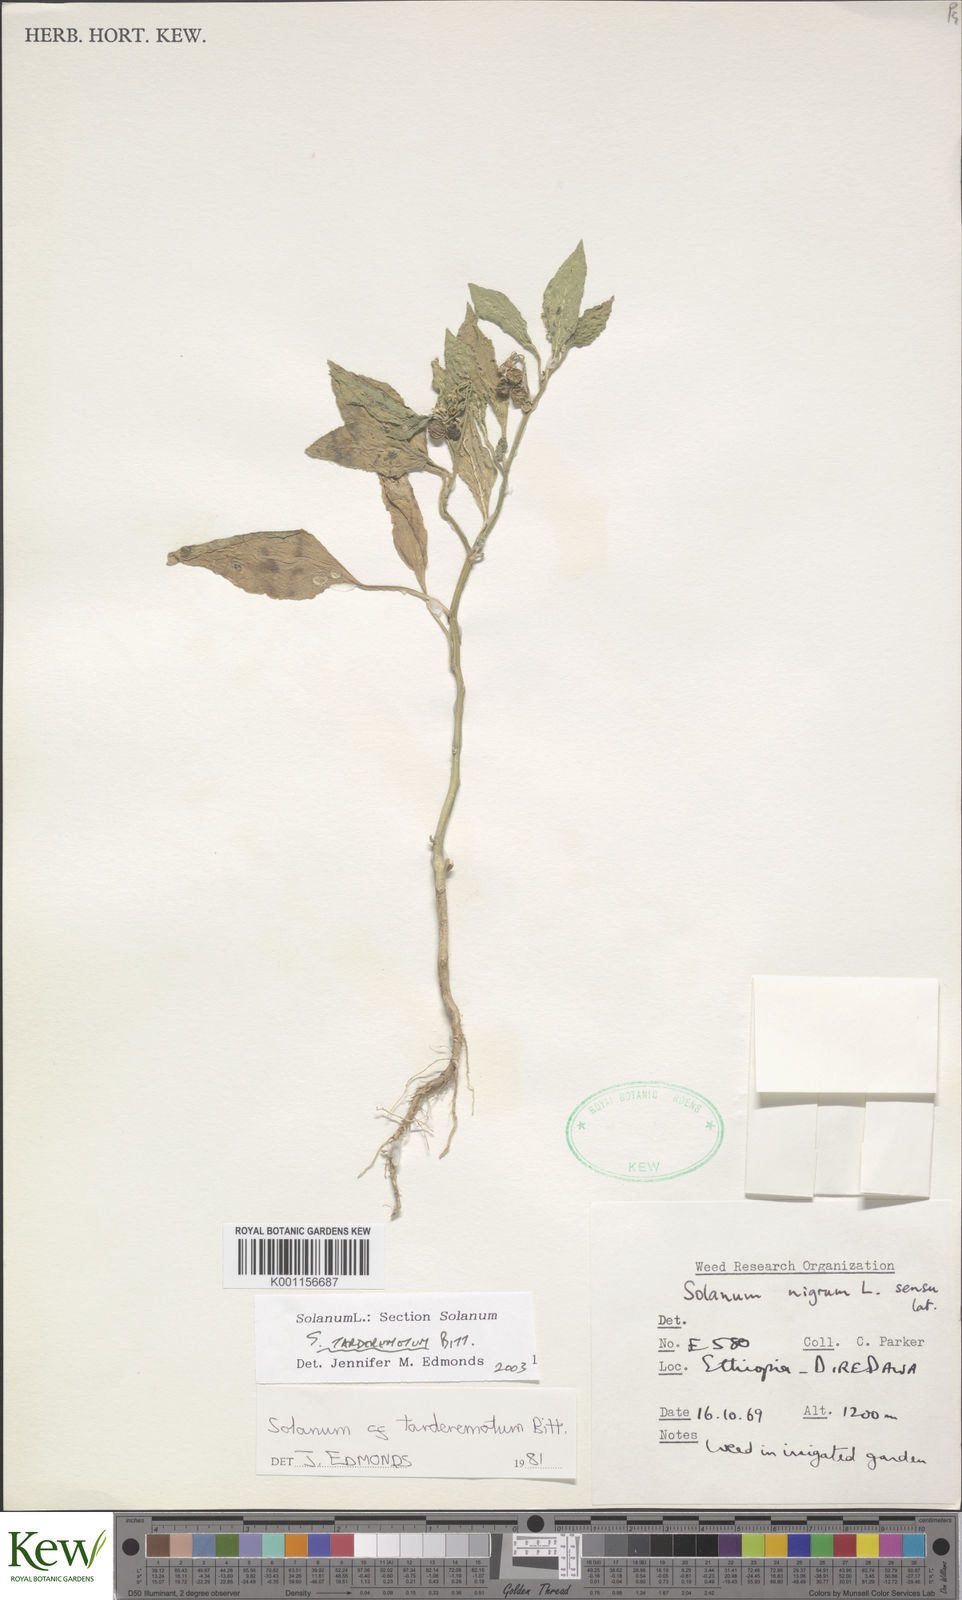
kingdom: Plantae
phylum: Tracheophyta
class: Magnoliopsida
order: Solanales
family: Solanaceae
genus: Solanum
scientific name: Solanum tarderemotum
